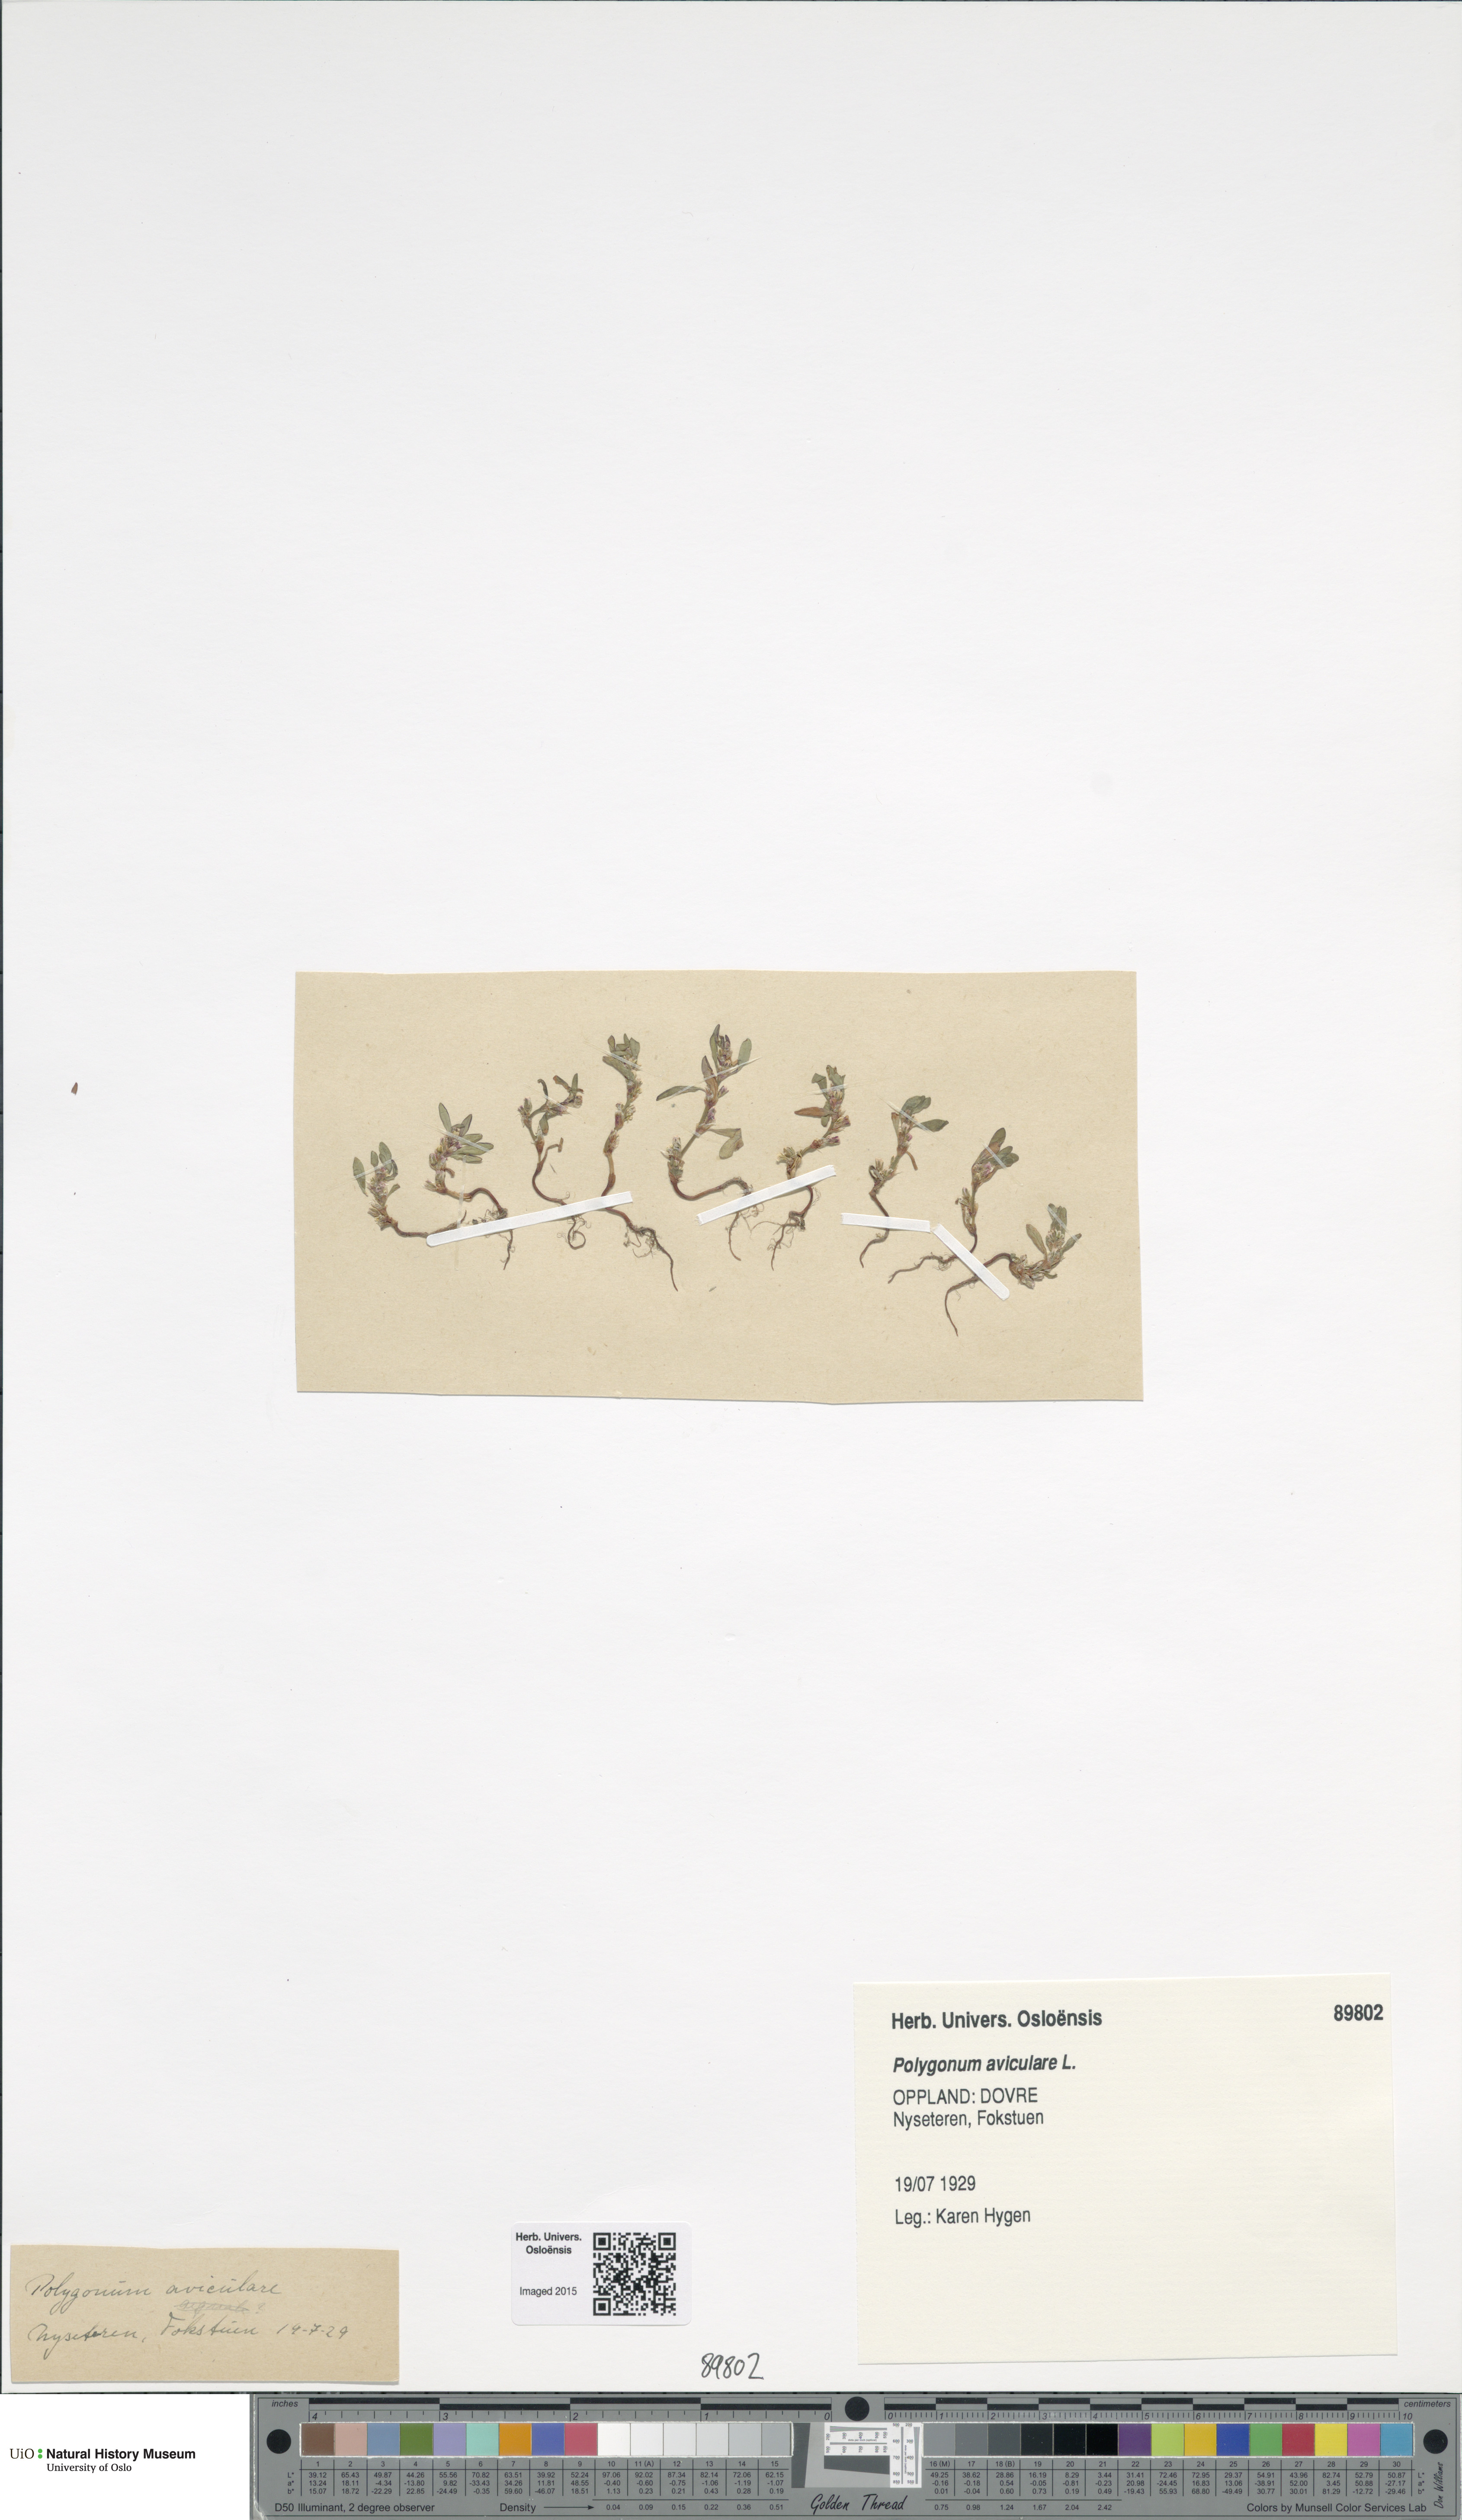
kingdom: Plantae
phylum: Tracheophyta
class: Magnoliopsida
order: Caryophyllales
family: Polygonaceae
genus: Polygonum
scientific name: Polygonum aviculare
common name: Prostrate knotweed
